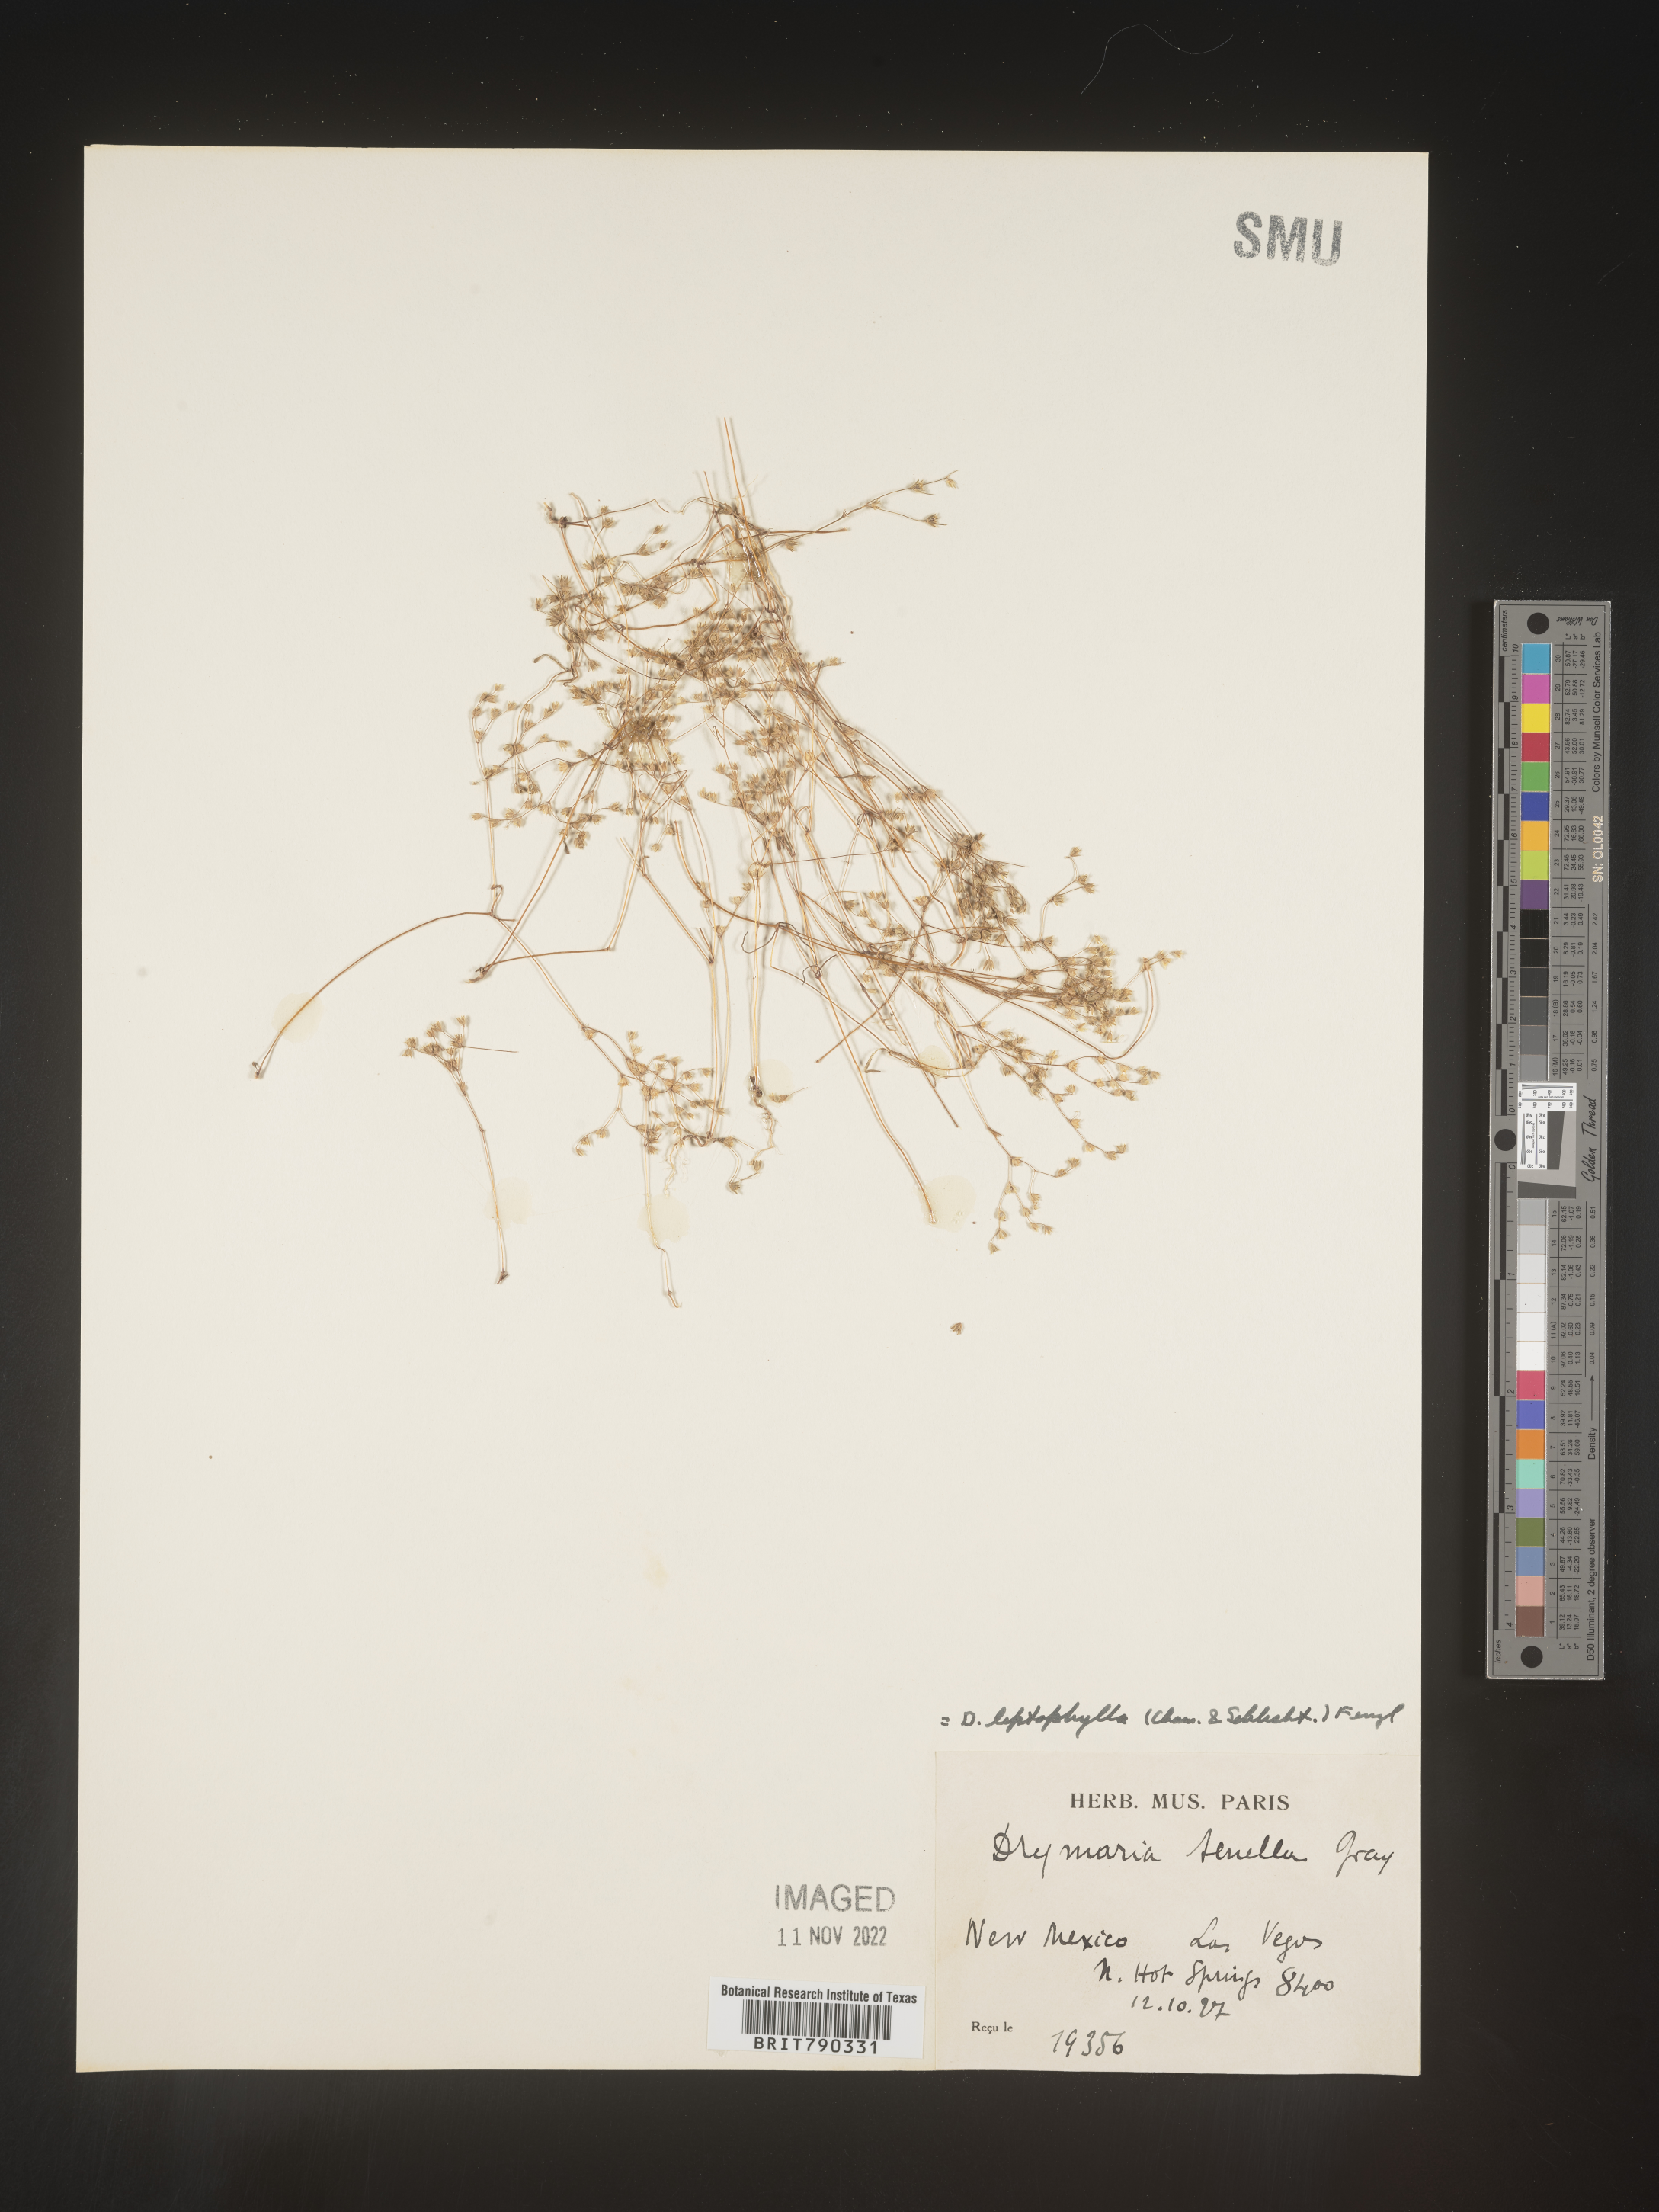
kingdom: Plantae
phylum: Tracheophyta
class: Magnoliopsida
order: Caryophyllales
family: Caryophyllaceae
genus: Drymaria
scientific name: Drymaria
